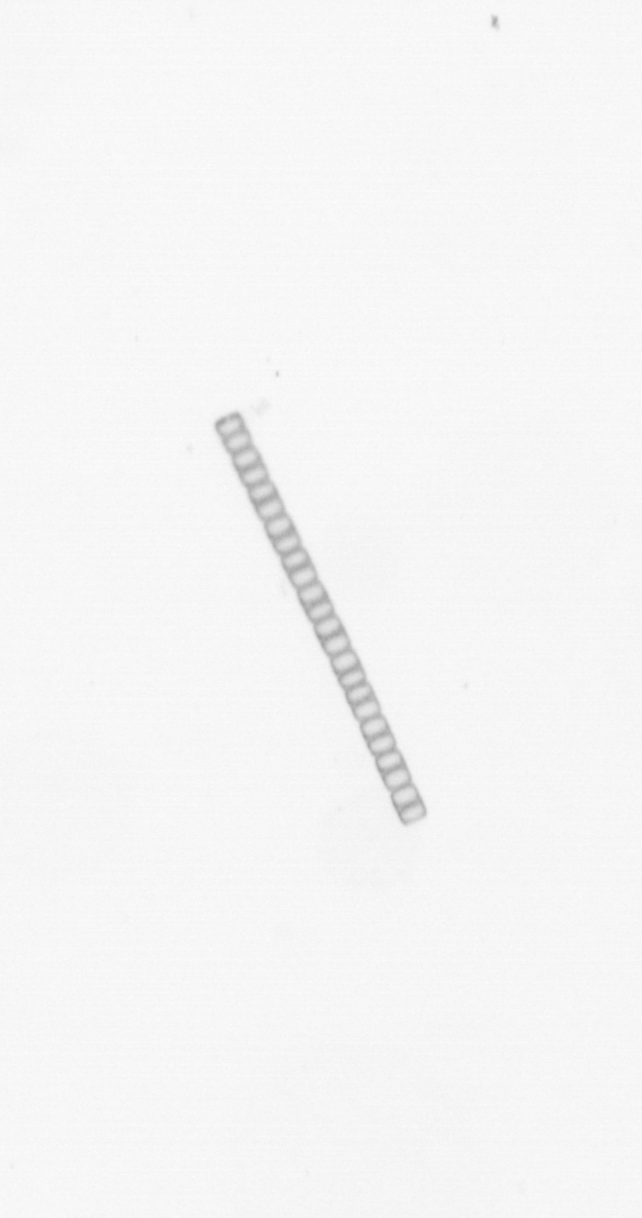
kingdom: Chromista
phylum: Ochrophyta
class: Bacillariophyceae
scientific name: Bacillariophyceae
